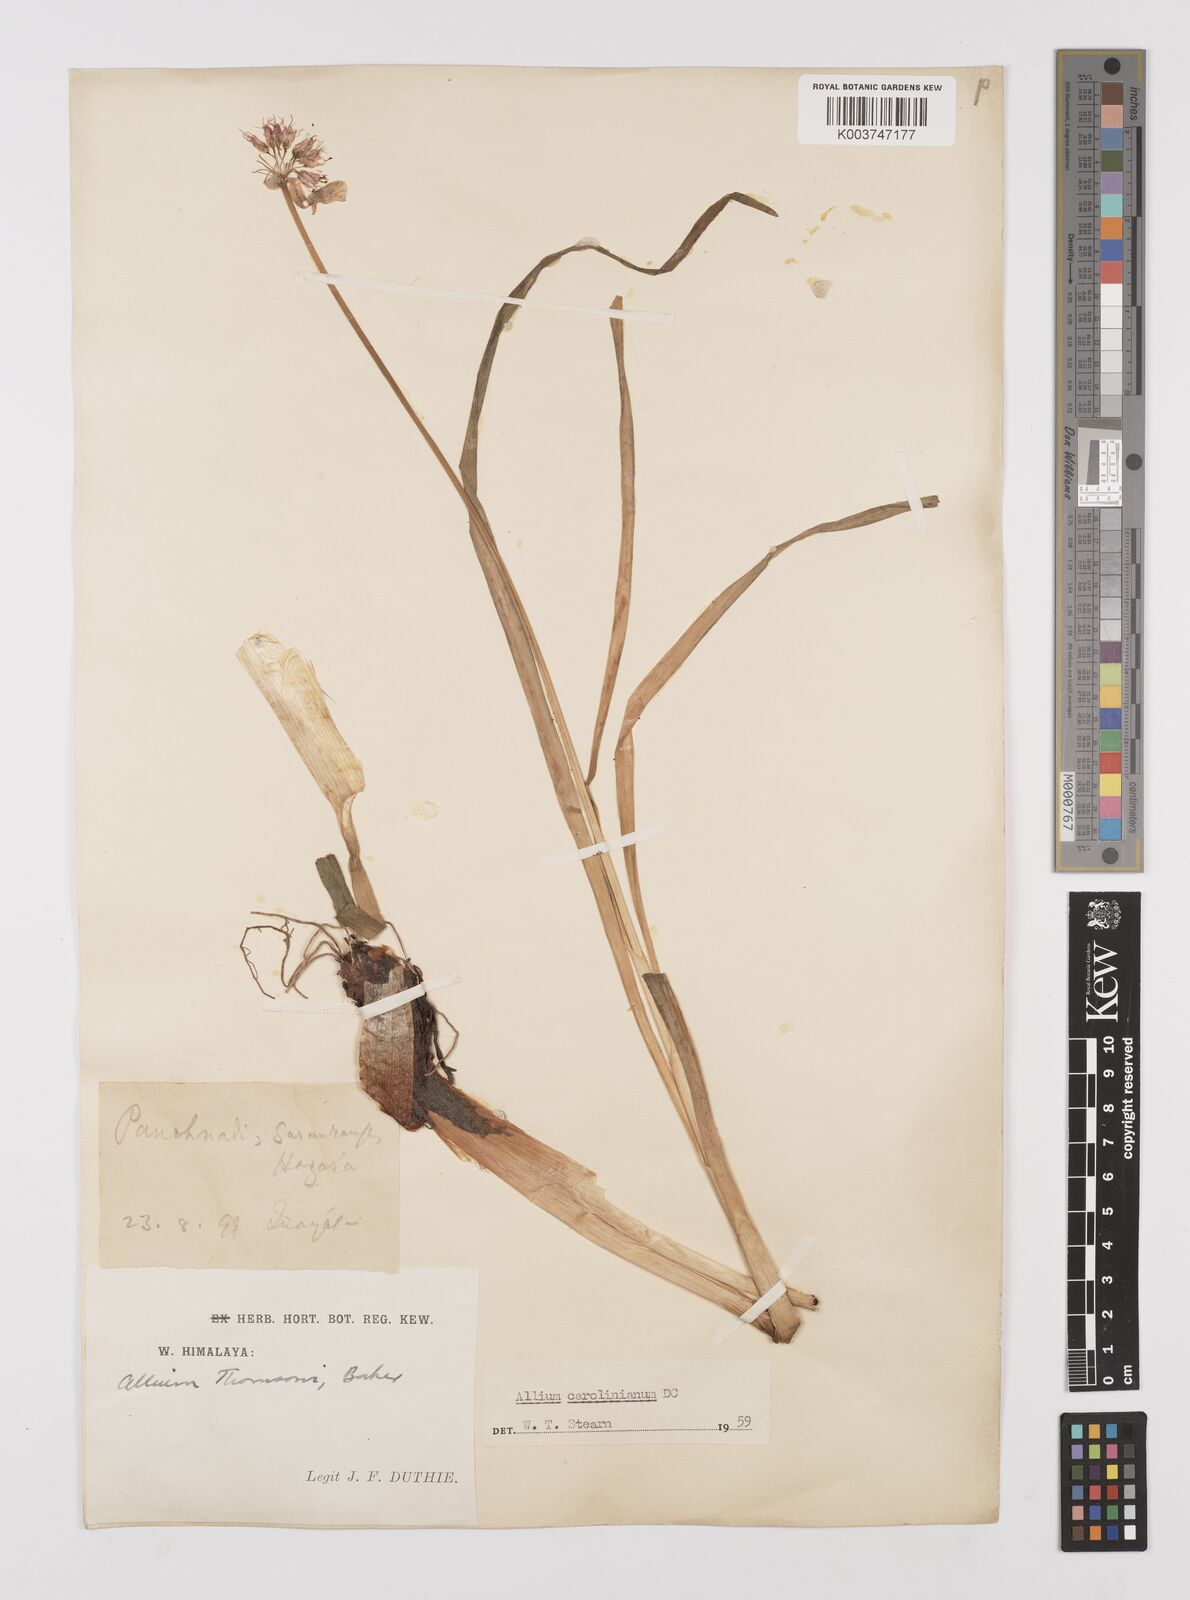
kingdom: Plantae
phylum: Tracheophyta
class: Liliopsida
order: Asparagales
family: Amaryllidaceae
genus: Allium
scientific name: Allium carolinianum
